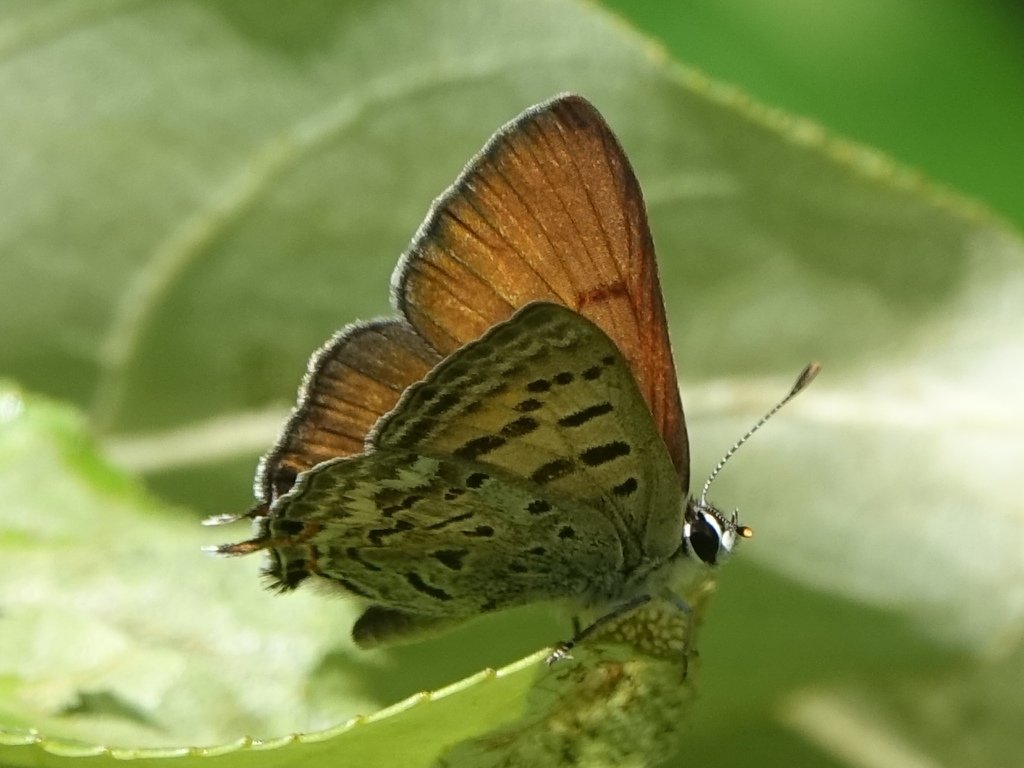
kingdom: Animalia
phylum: Arthropoda
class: Insecta
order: Lepidoptera
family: Sesiidae
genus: Sesia
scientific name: Sesia Lycaena arota
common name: Tailed Copper
